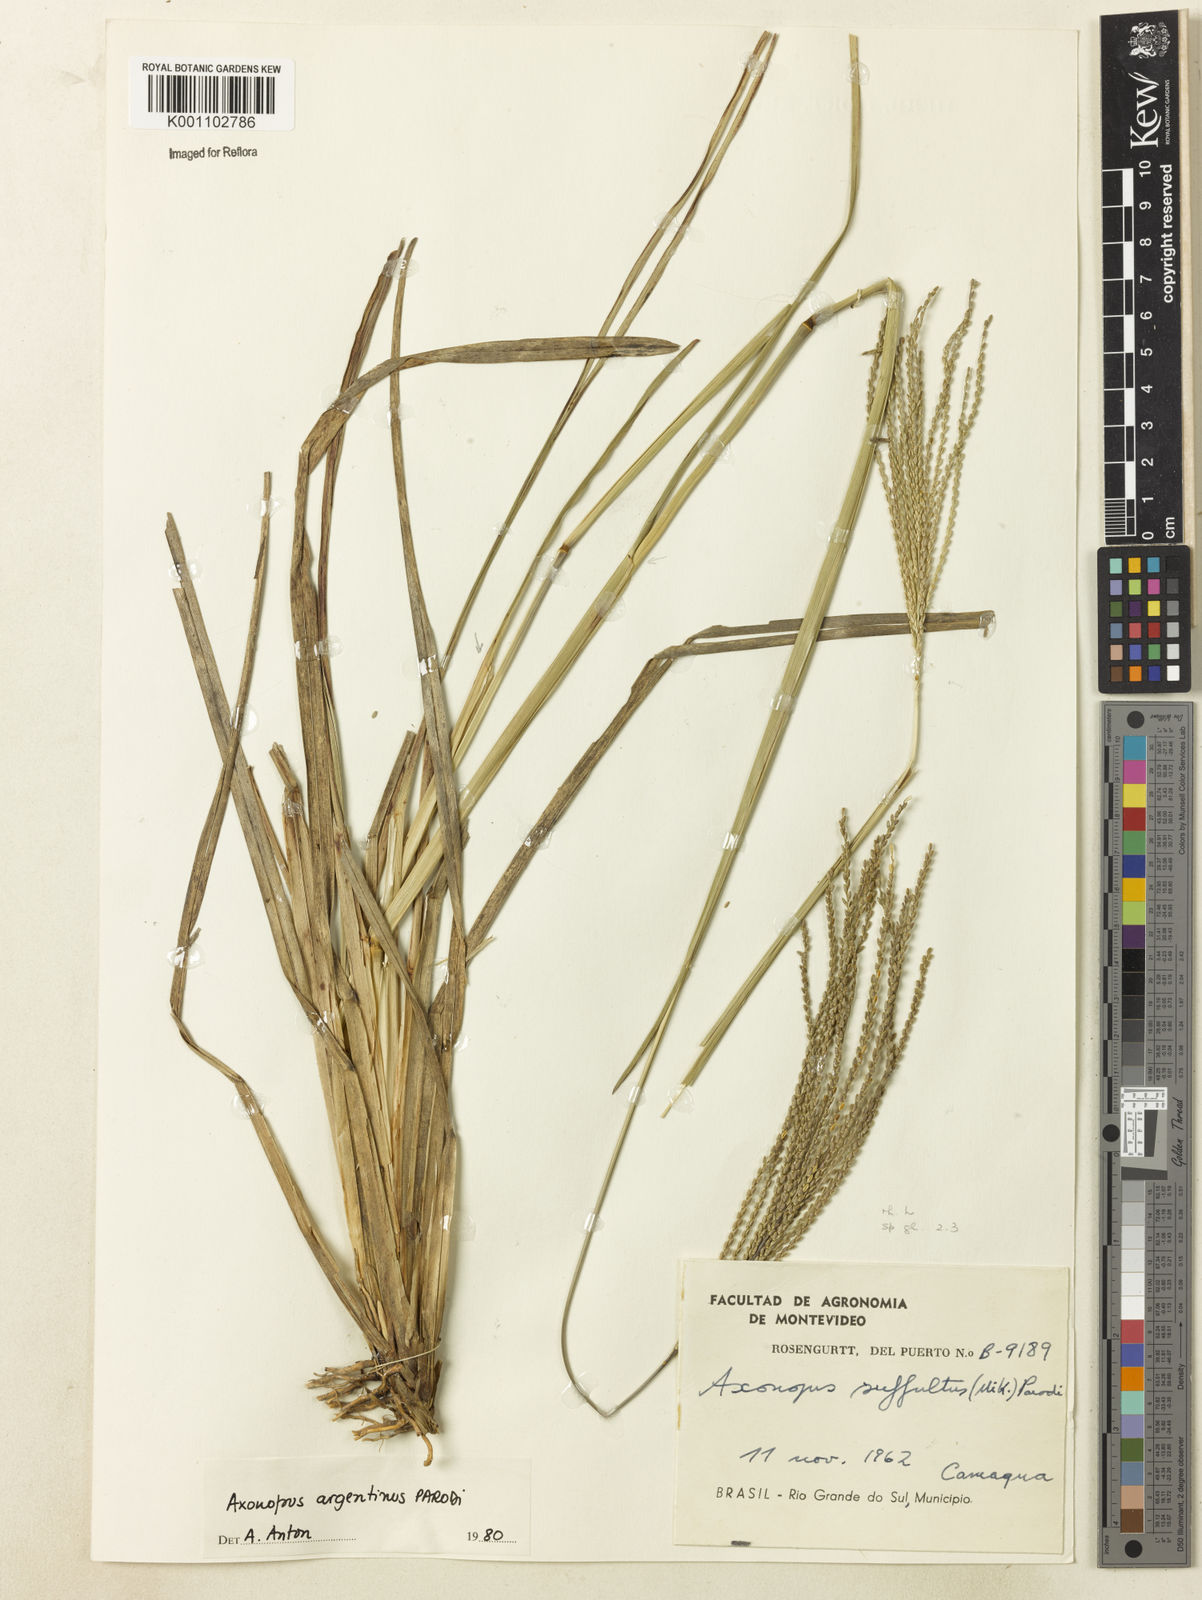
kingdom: Plantae
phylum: Tracheophyta
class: Liliopsida
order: Poales
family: Poaceae
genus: Axonopus
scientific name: Axonopus argentinus
